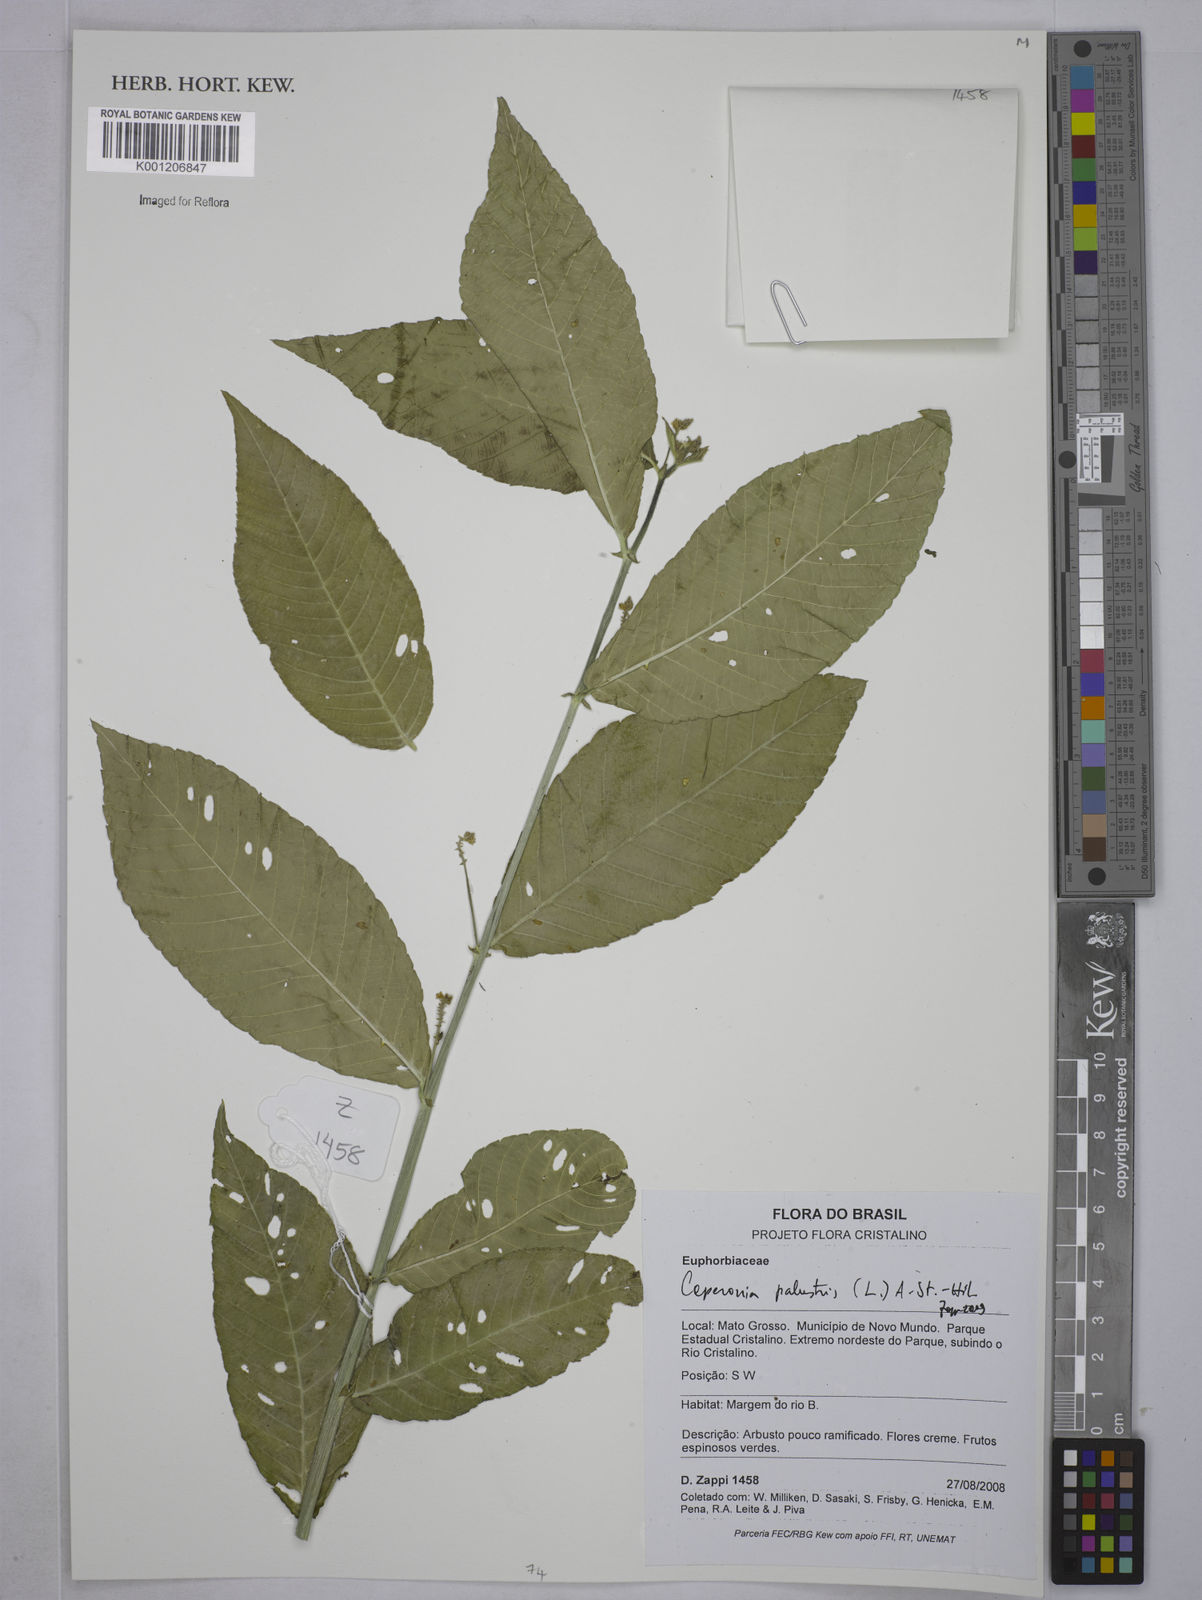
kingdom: Plantae
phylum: Tracheophyta
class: Magnoliopsida
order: Malpighiales
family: Euphorbiaceae
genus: Caperonia
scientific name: Caperonia palustris
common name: Sacatrapo
